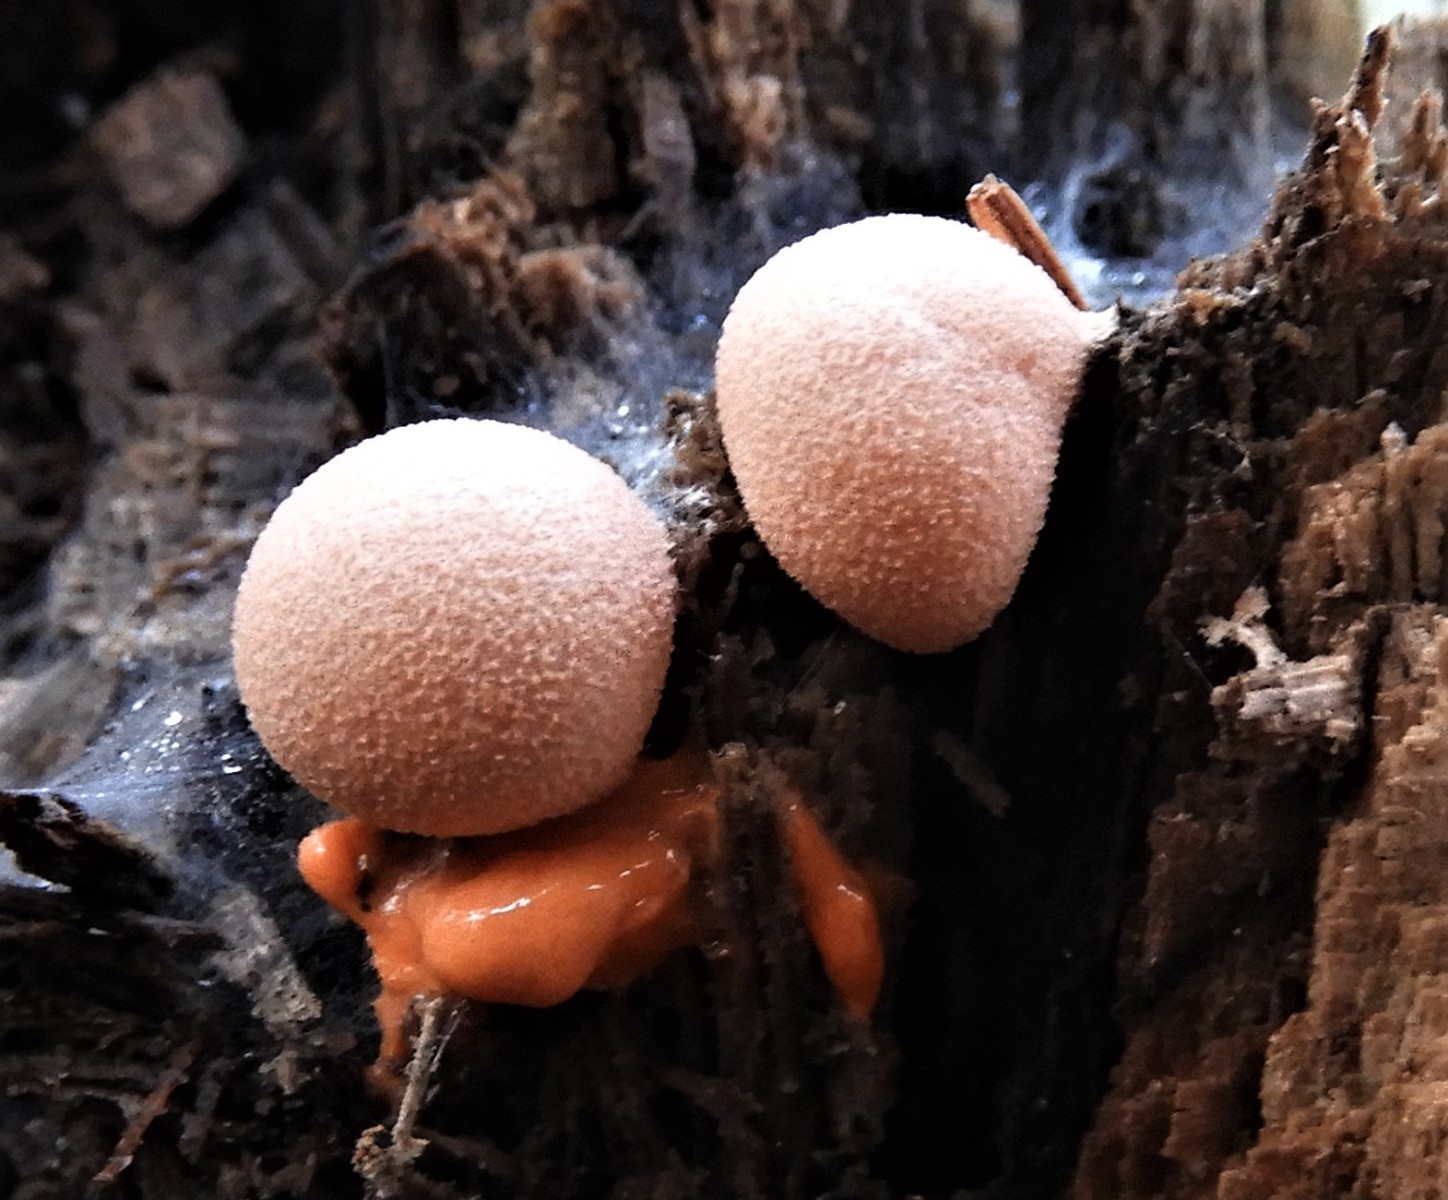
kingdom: Protozoa
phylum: Mycetozoa
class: Myxomycetes
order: Cribrariales
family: Tubiferaceae
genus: Lycogala
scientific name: Lycogala epidendrum
